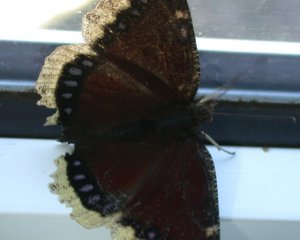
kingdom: Animalia
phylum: Arthropoda
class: Insecta
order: Lepidoptera
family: Nymphalidae
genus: Nymphalis
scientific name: Nymphalis antiopa
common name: Mourning Cloak
